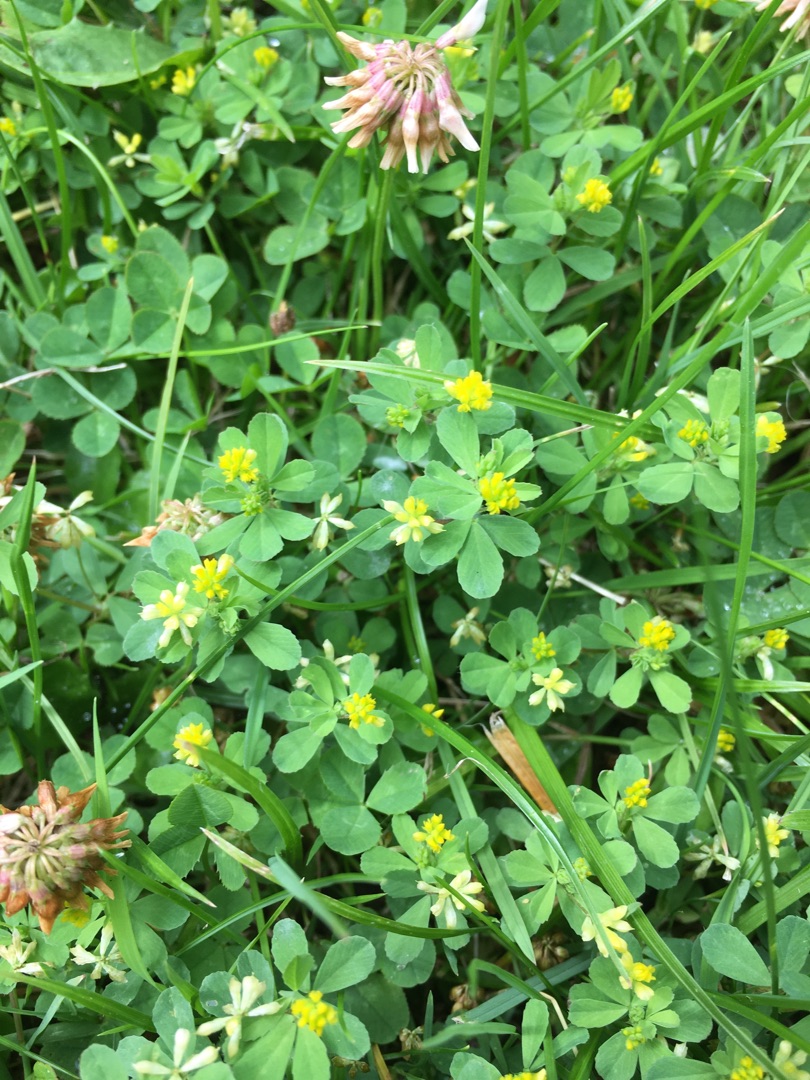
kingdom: Plantae
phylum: Tracheophyta
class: Magnoliopsida
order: Fabales
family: Fabaceae
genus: Trifolium
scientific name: Trifolium dubium
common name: Fin kløver
